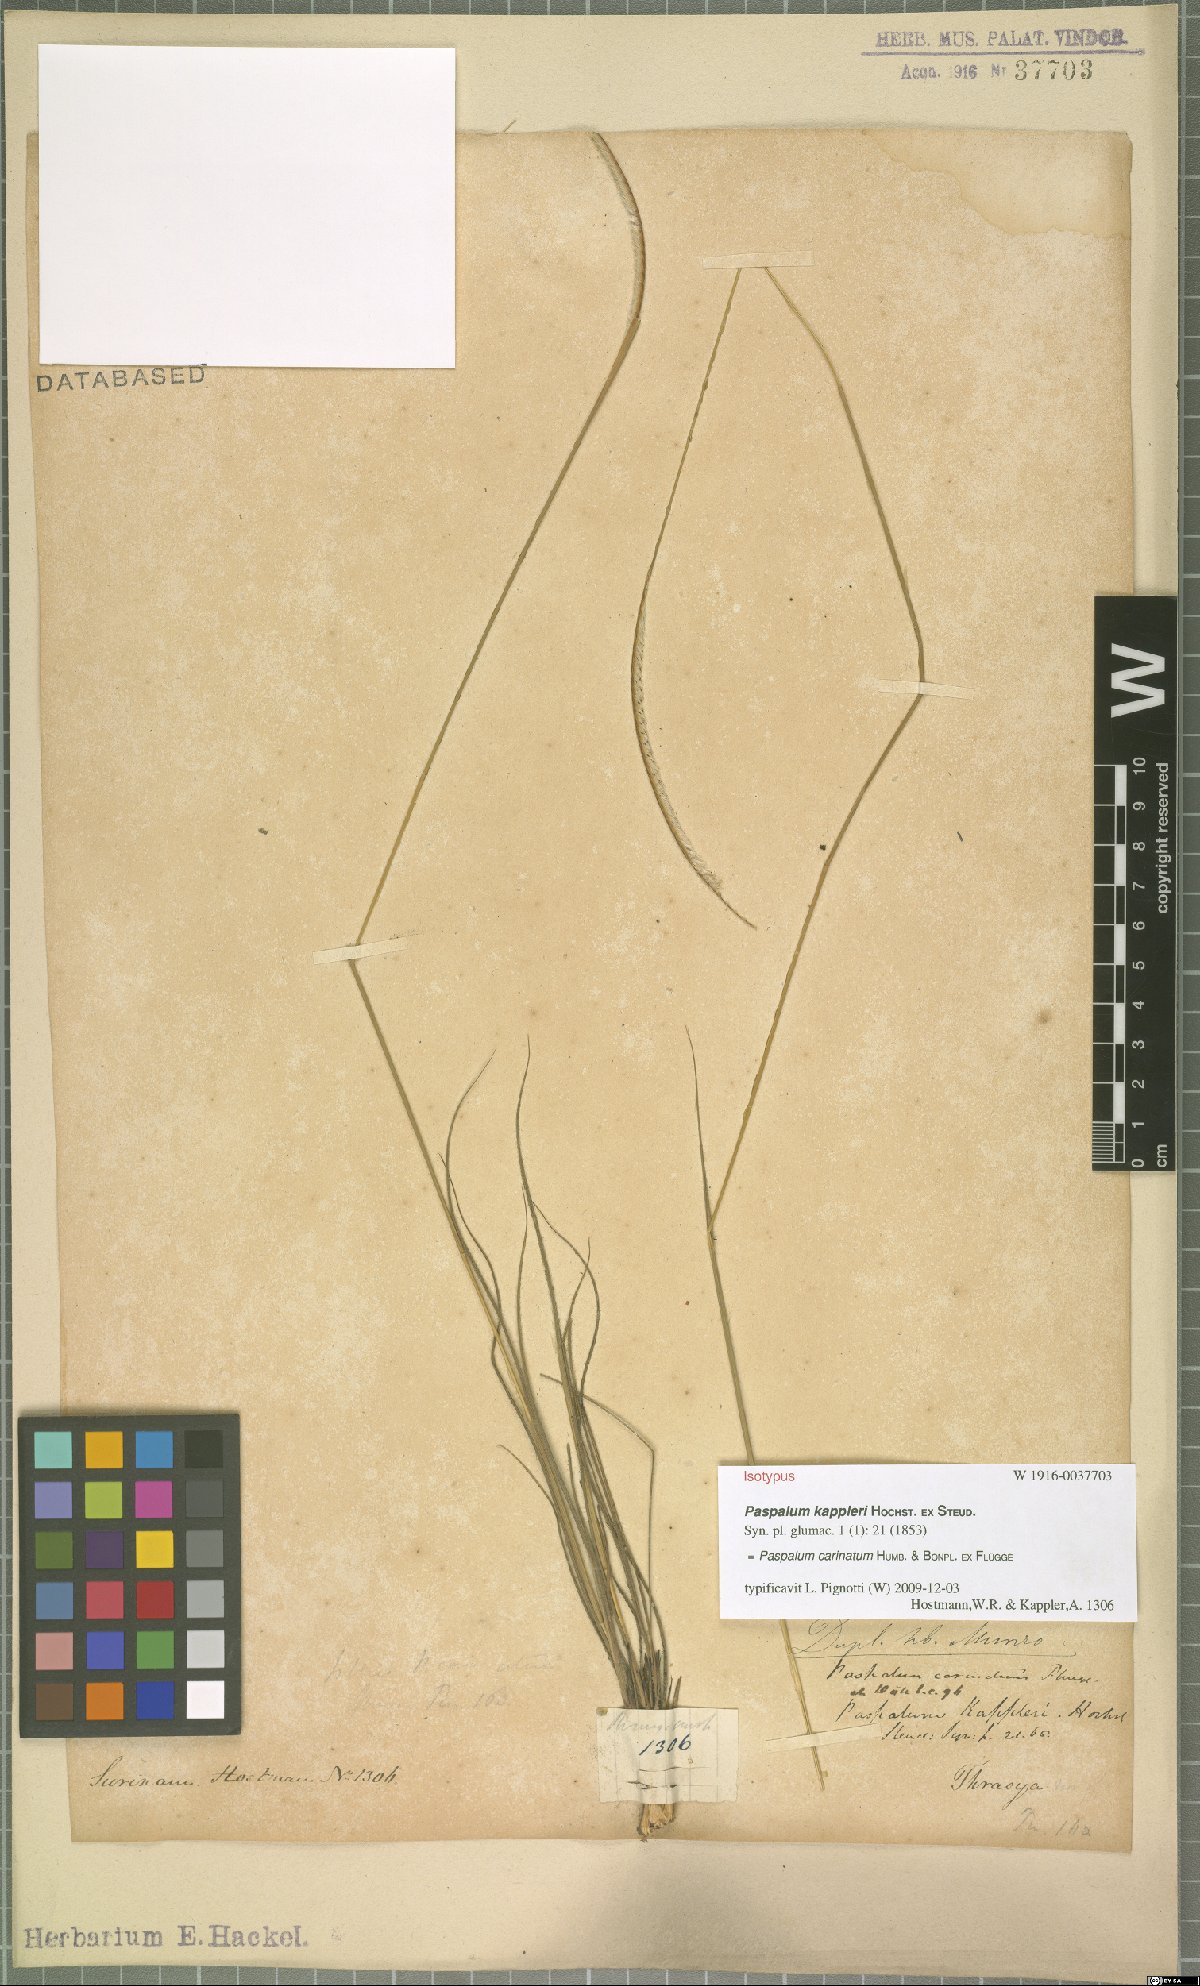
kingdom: Plantae
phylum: Tracheophyta
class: Liliopsida
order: Poales
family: Poaceae
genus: Paspalum
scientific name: Paspalum carinatum
